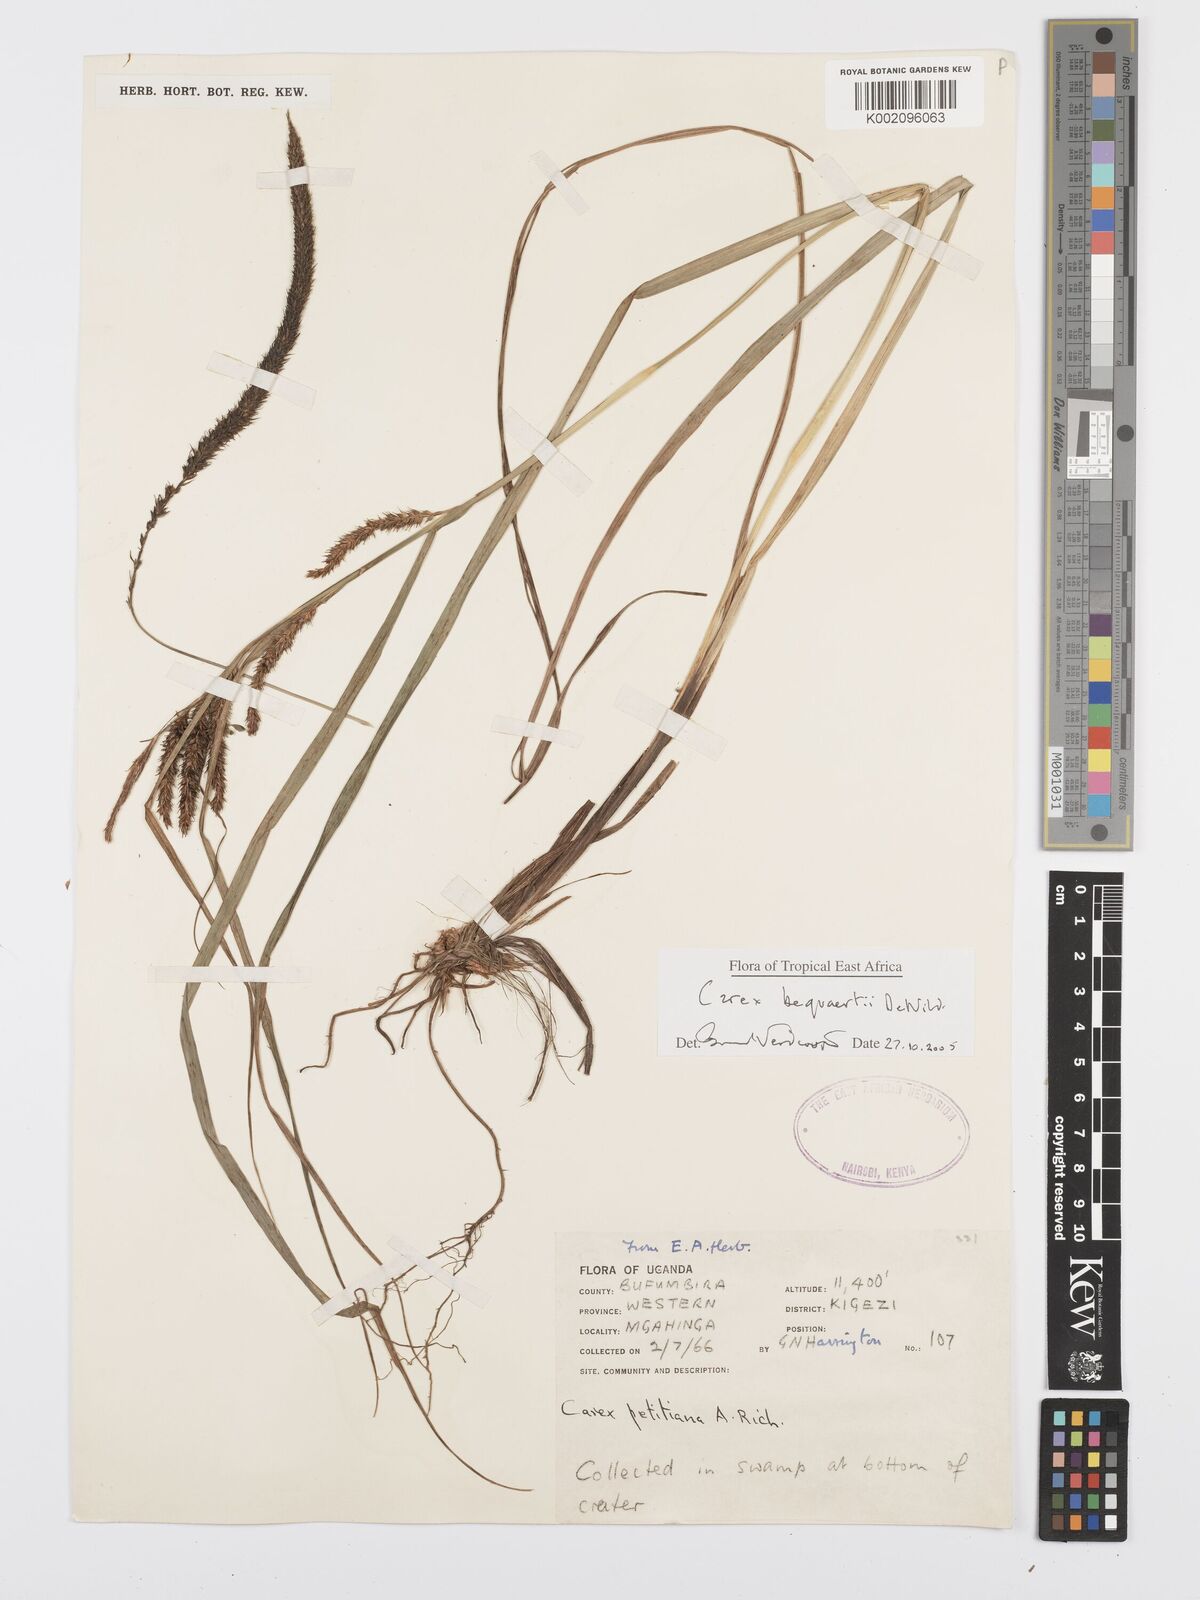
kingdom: Plantae
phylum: Tracheophyta
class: Liliopsida
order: Poales
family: Cyperaceae
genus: Carex
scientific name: Carex bequaertii
